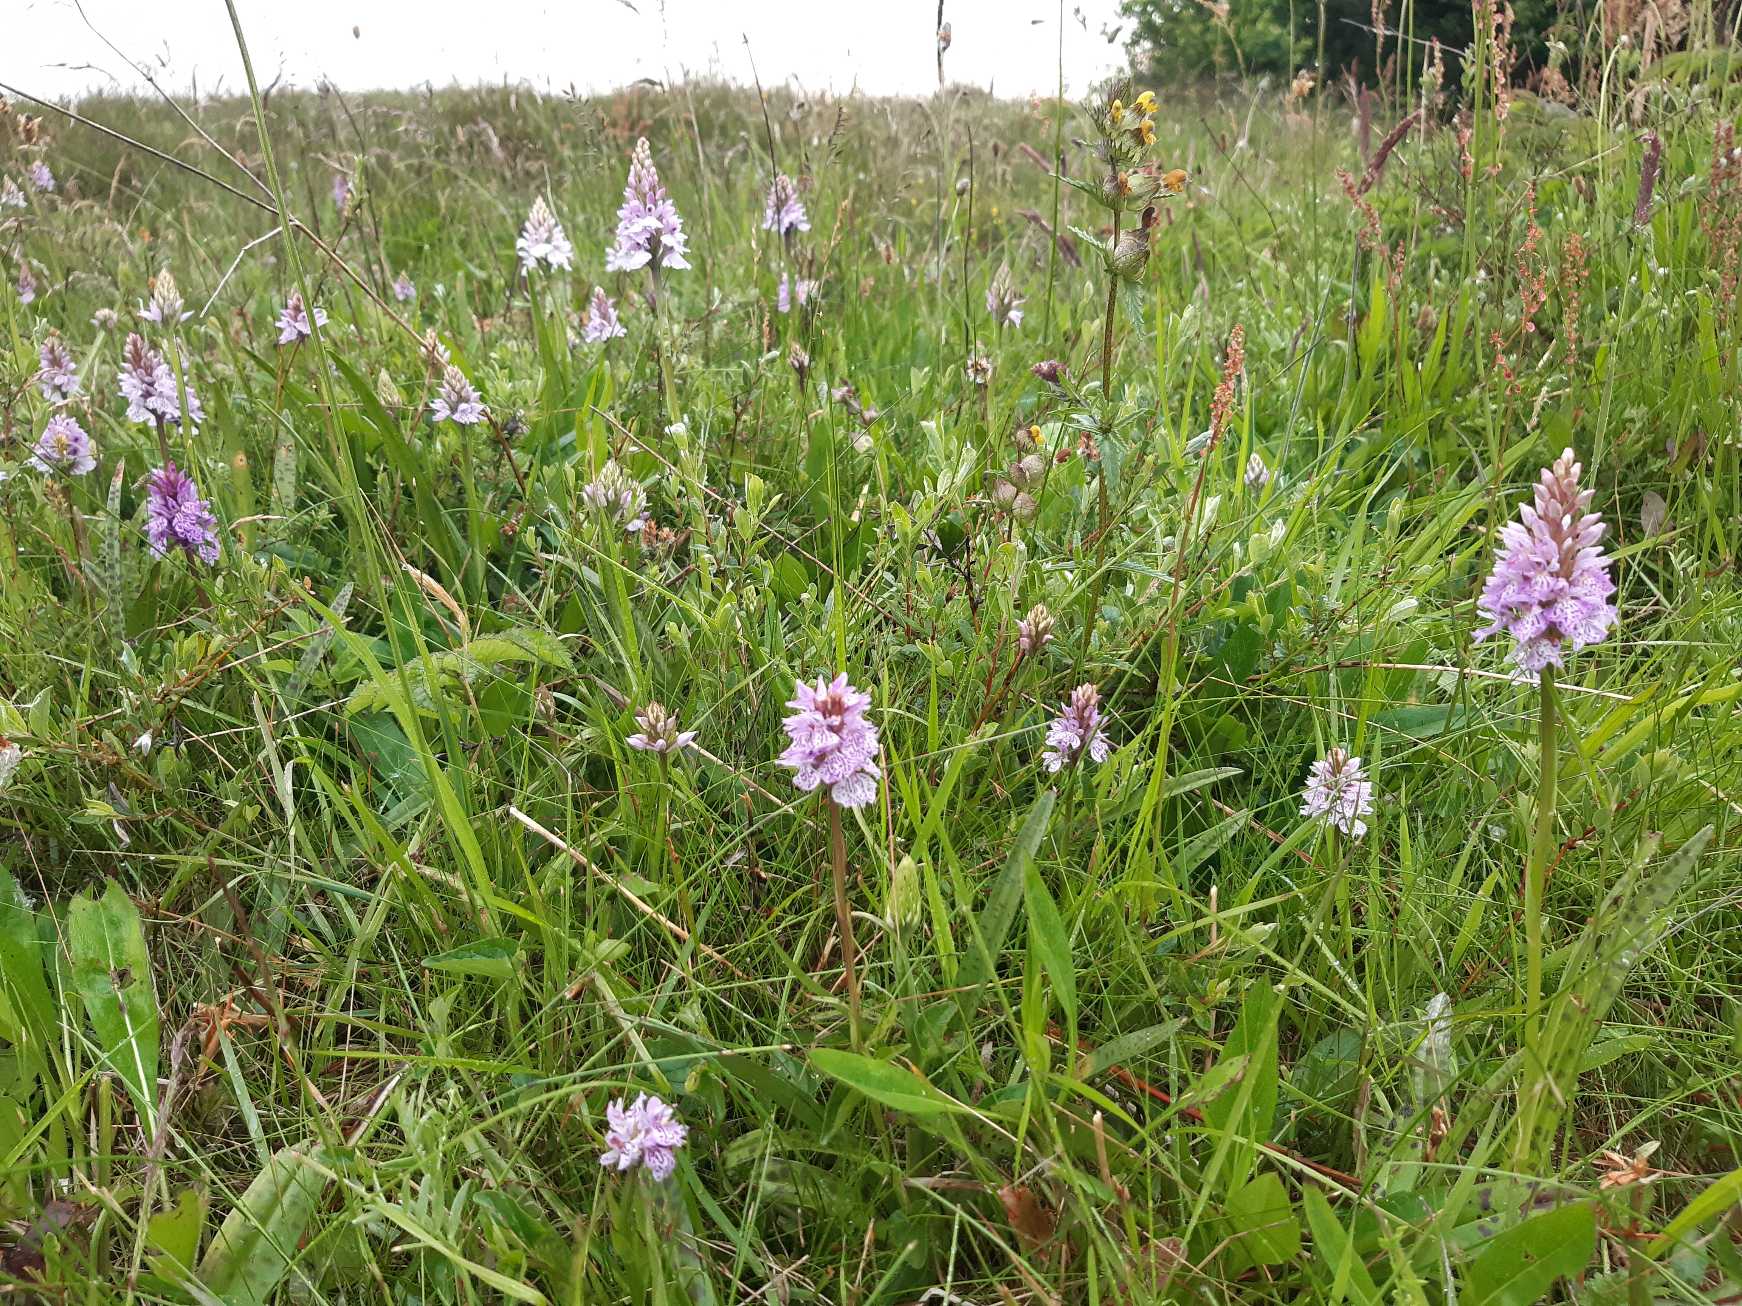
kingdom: Plantae
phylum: Tracheophyta
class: Liliopsida
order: Asparagales
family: Orchidaceae
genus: Dactylorhiza
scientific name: Dactylorhiza maculata
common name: Plettet gøgeurt
